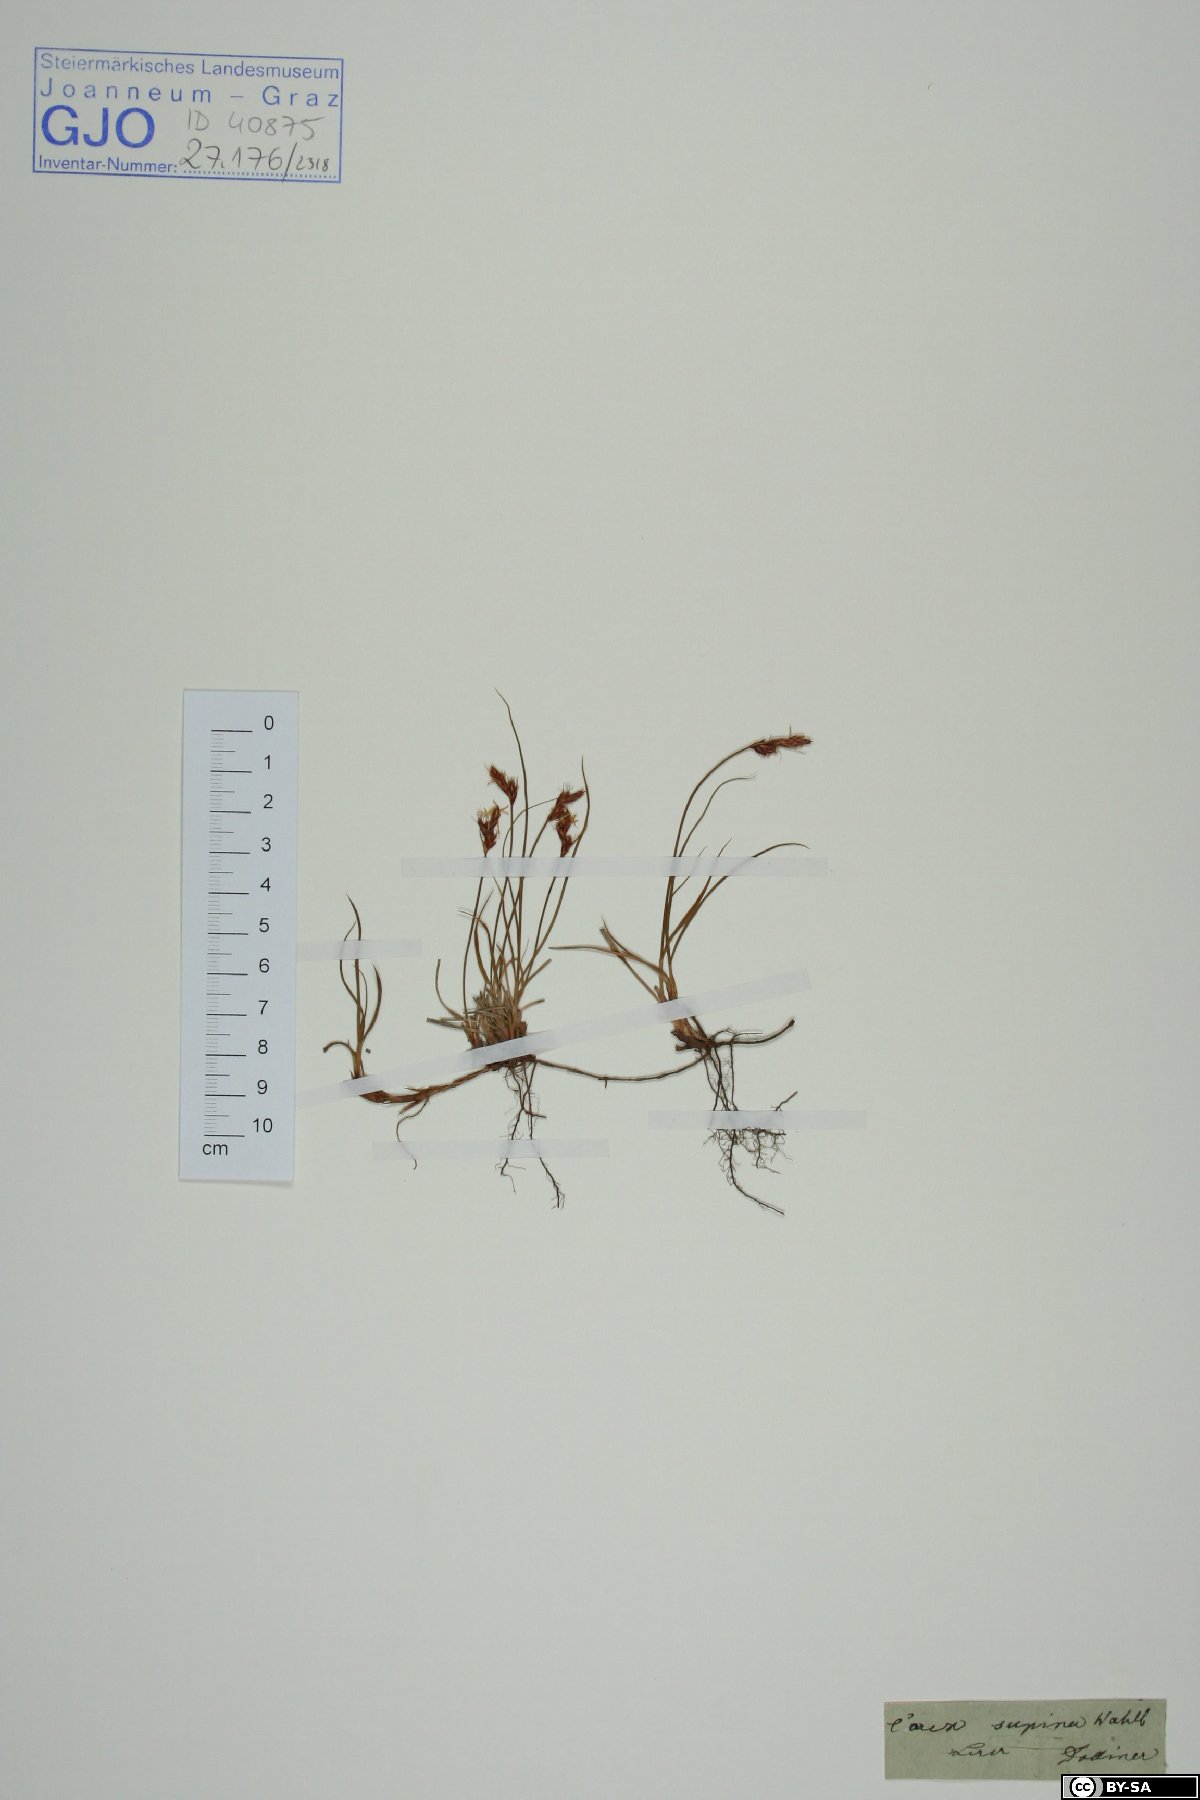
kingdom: Plantae
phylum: Tracheophyta
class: Liliopsida
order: Poales
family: Cyperaceae
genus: Carex
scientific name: Carex supina
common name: Lying-back sedge
